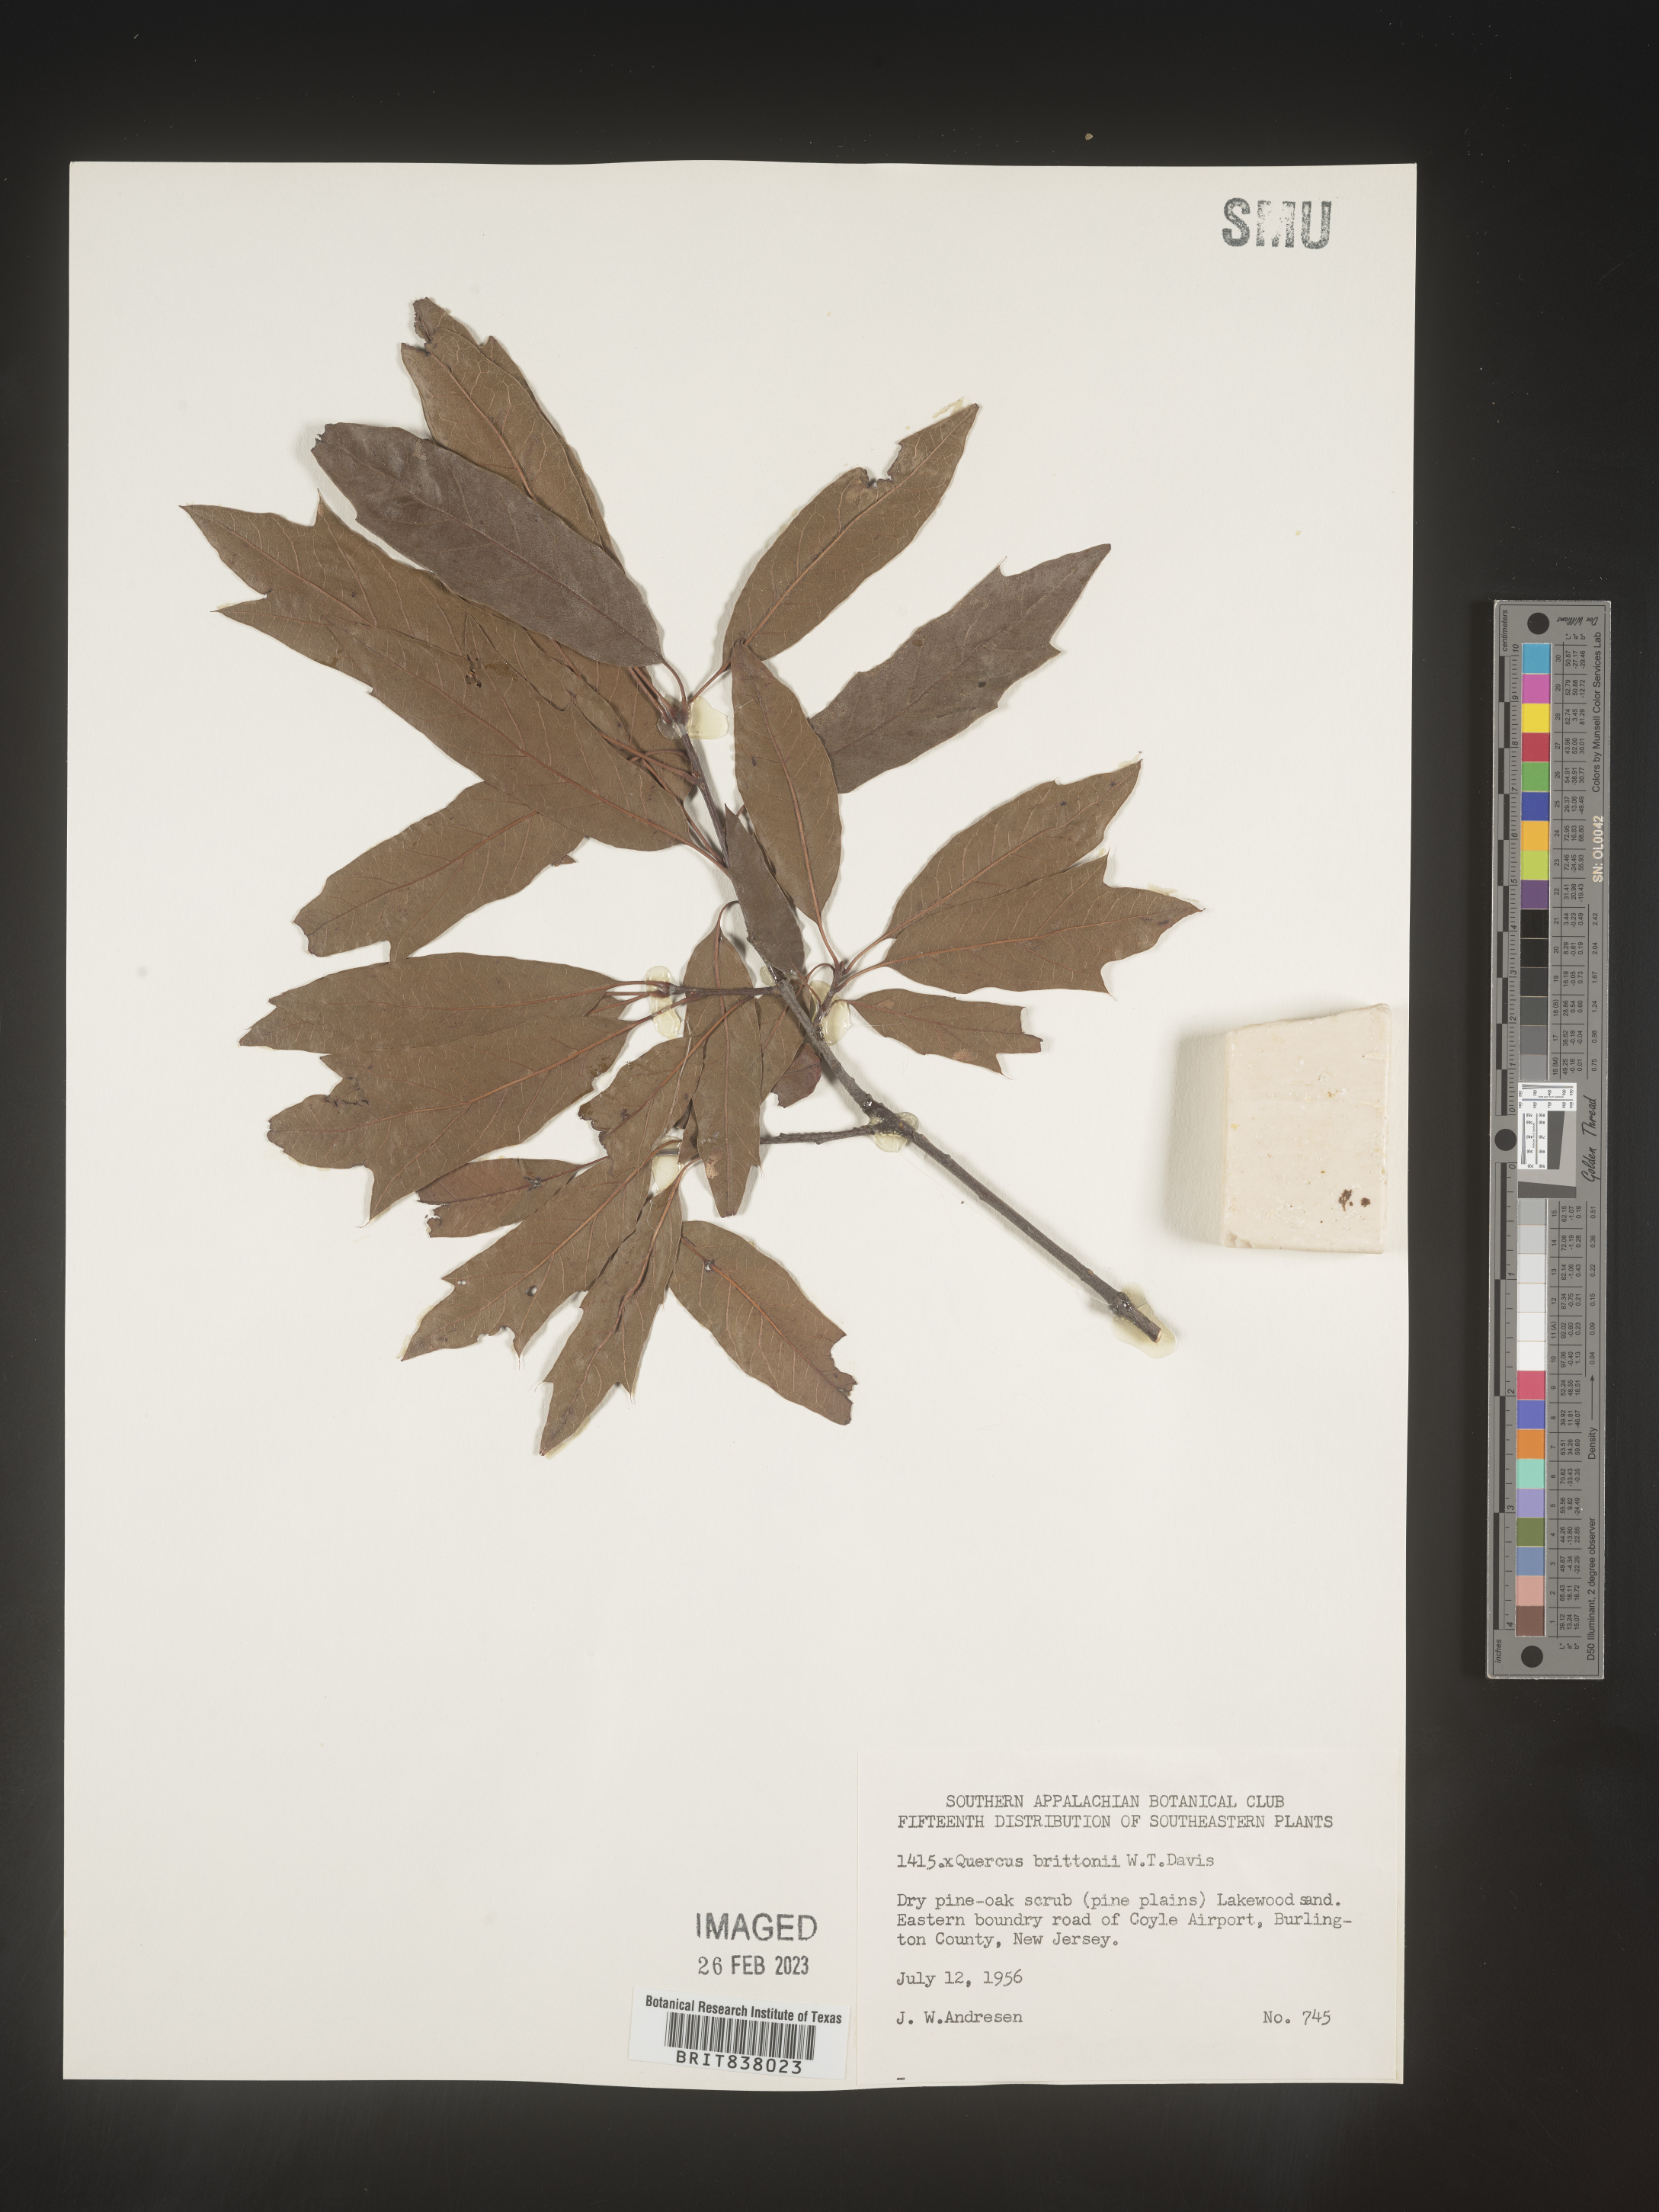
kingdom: Plantae
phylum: Tracheophyta
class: Magnoliopsida
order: Fagales
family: Fagaceae
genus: Quercus
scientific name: Quercus
